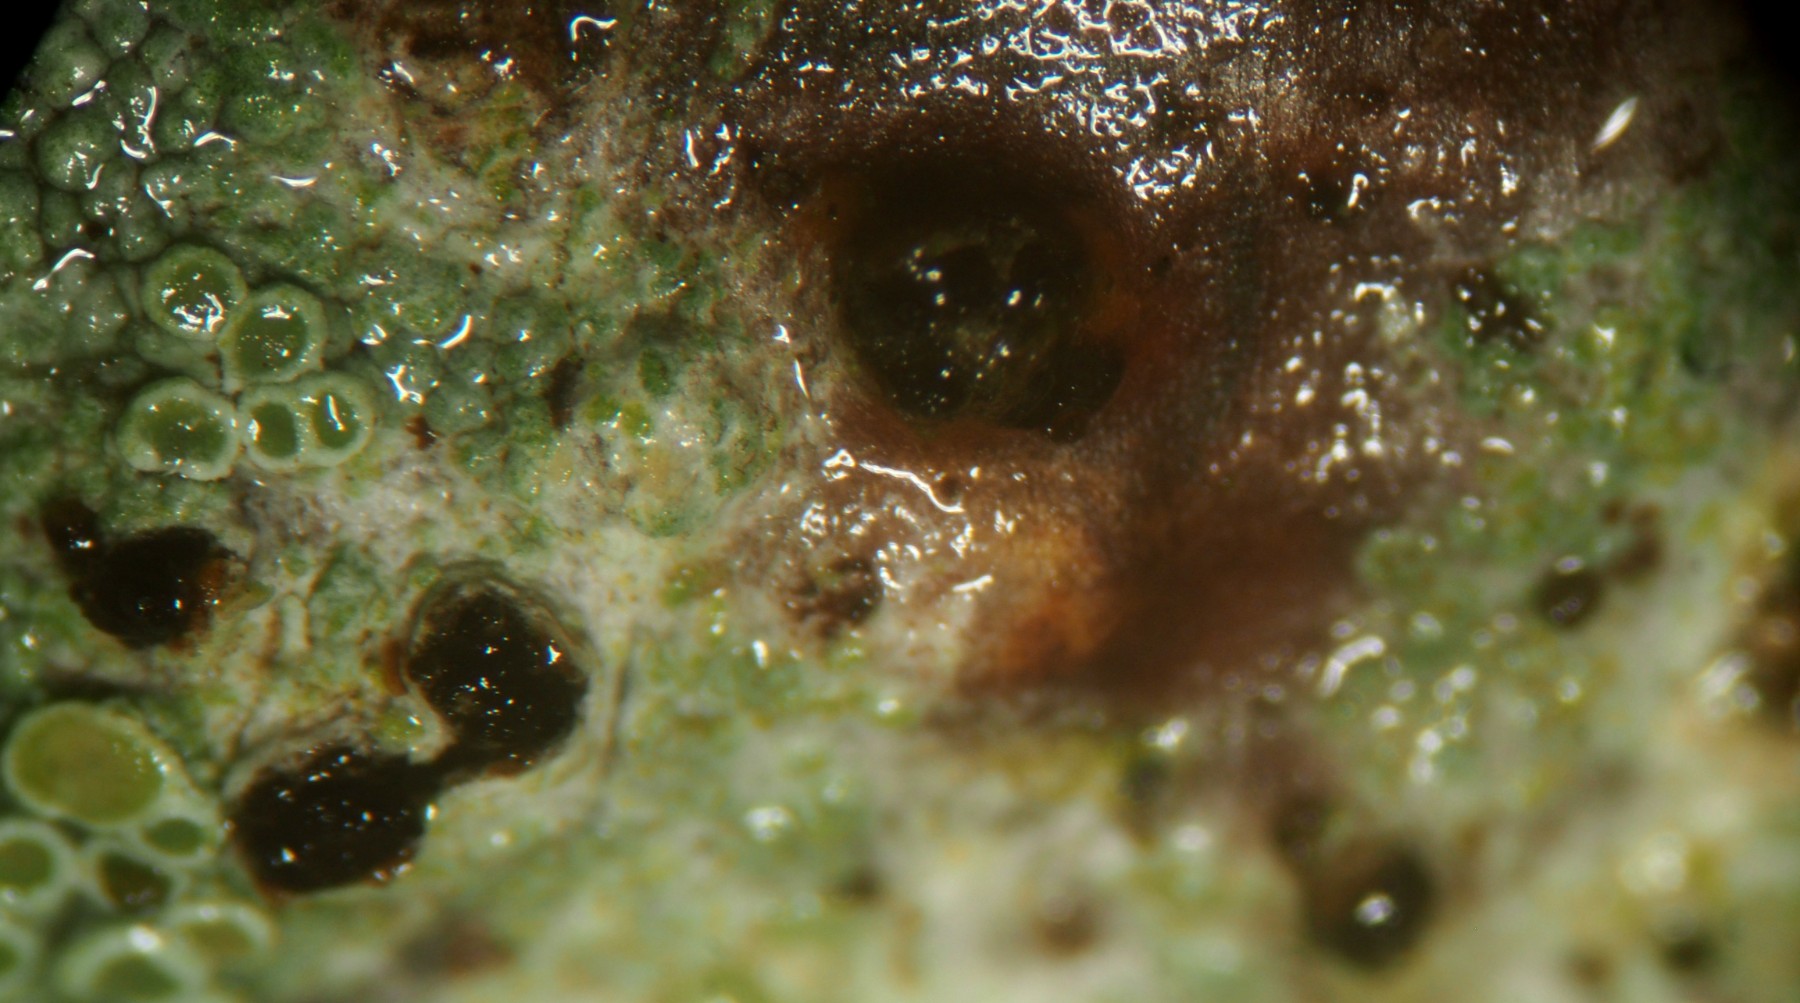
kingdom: Fungi
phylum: Ascomycota
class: Sordariomycetes
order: Diaporthales
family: Sydowiellaceae
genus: Caudospora
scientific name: Caudospora taleola
